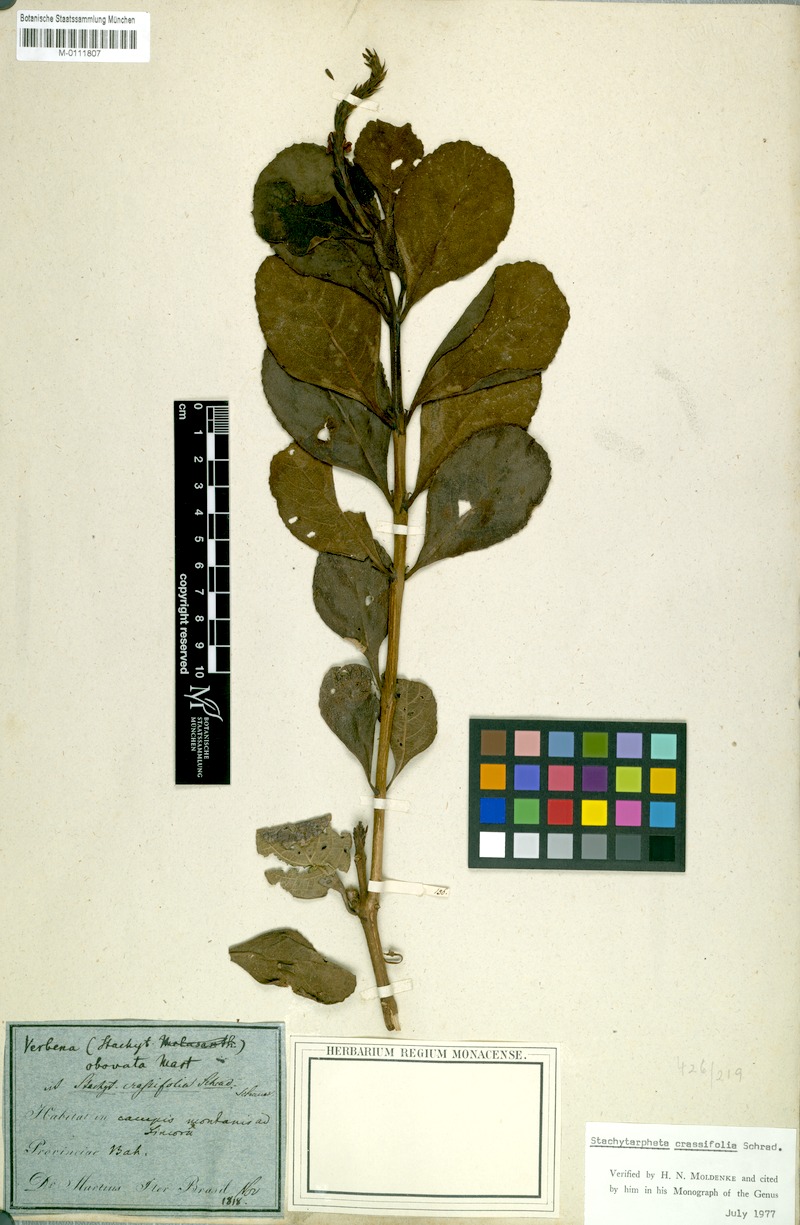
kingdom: Plantae
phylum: Tracheophyta
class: Magnoliopsida
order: Lamiales
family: Verbenaceae
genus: Stachytarpheta
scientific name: Stachytarpheta crassifolia
